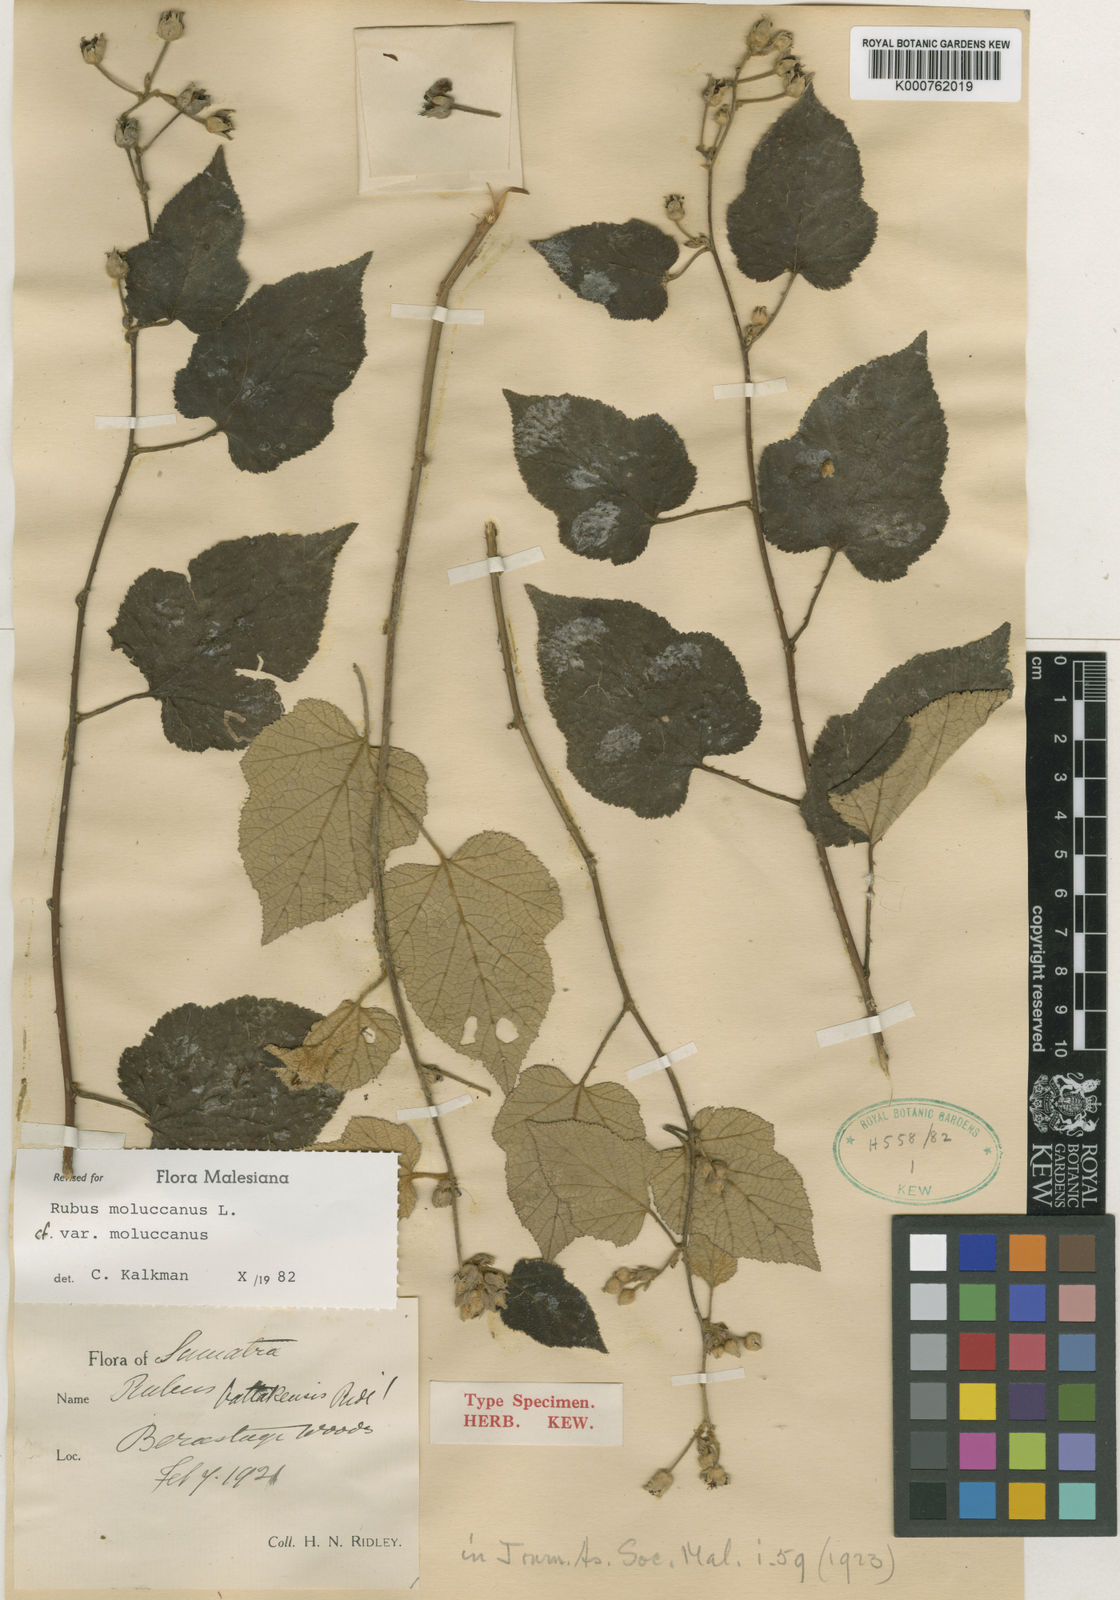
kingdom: Plantae
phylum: Tracheophyta
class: Magnoliopsida
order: Rosales
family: Rosaceae
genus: Rubus
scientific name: Rubus moluccanus
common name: Wild raspberry
